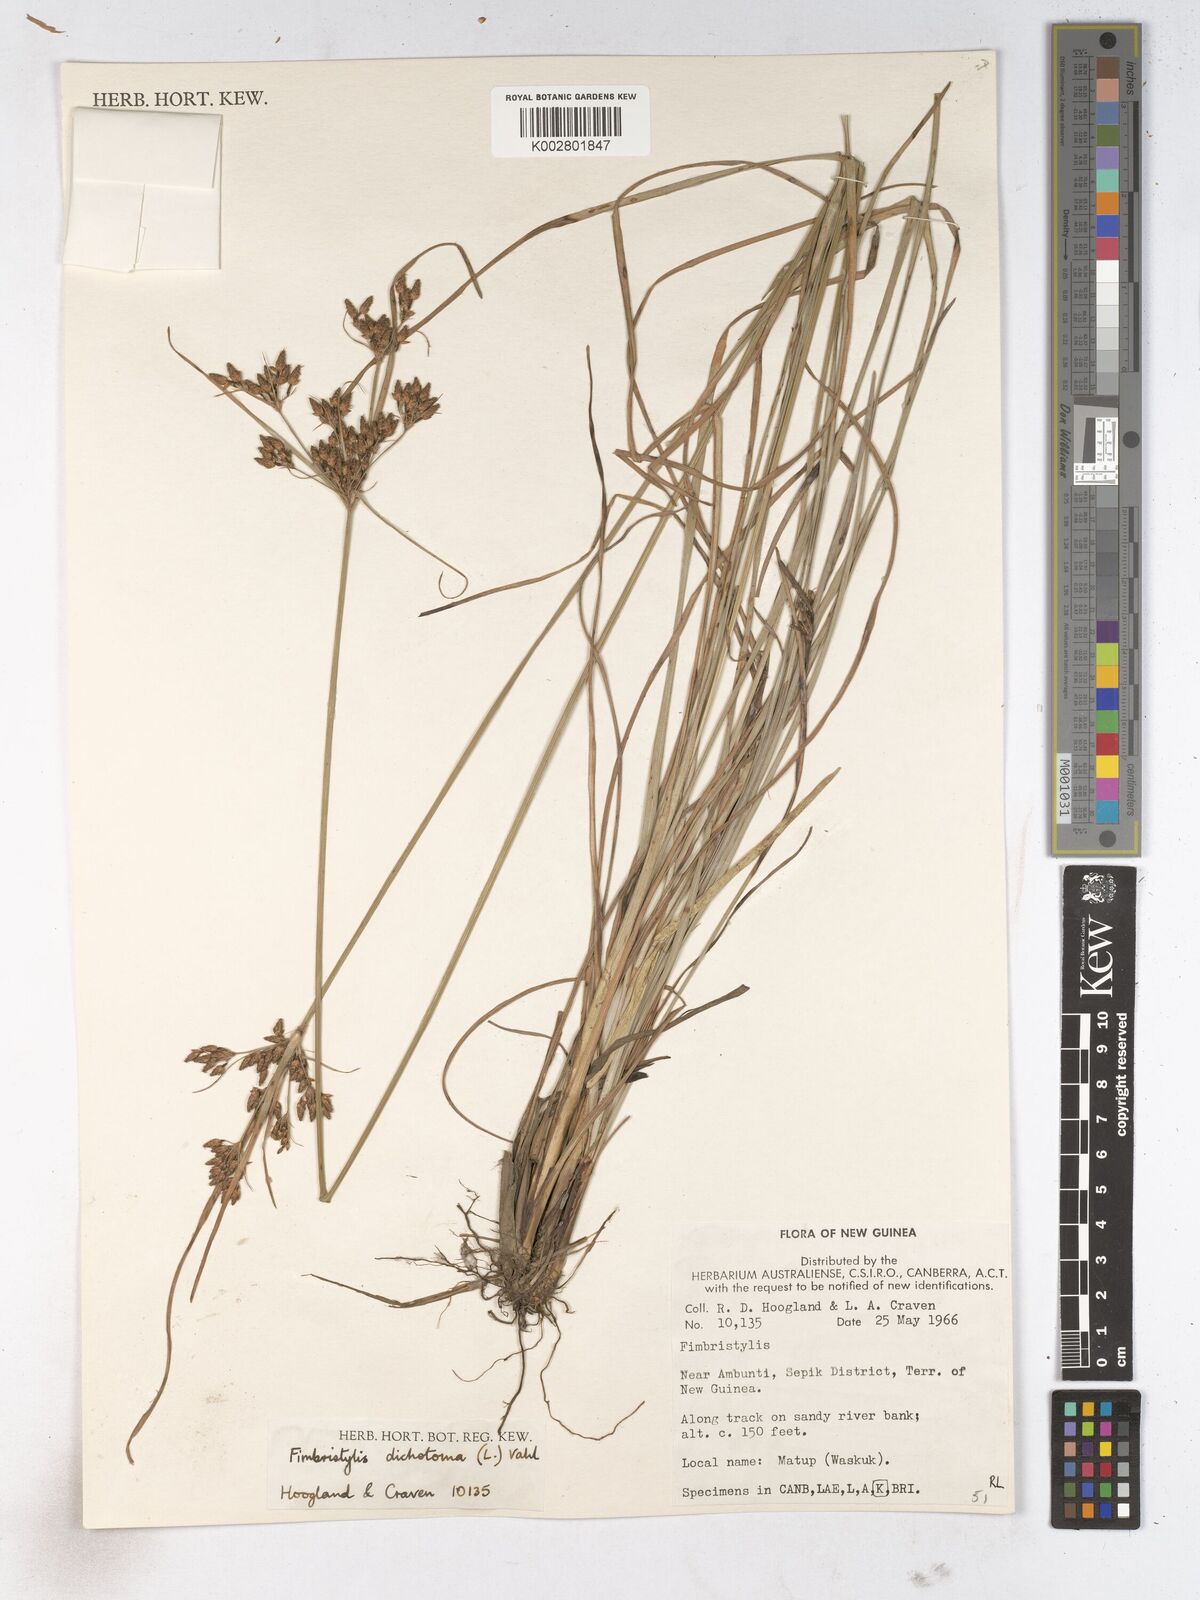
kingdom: Plantae
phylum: Tracheophyta
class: Liliopsida
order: Poales
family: Cyperaceae
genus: Fimbristylis
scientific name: Fimbristylis dichotoma
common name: Forked fimbry
